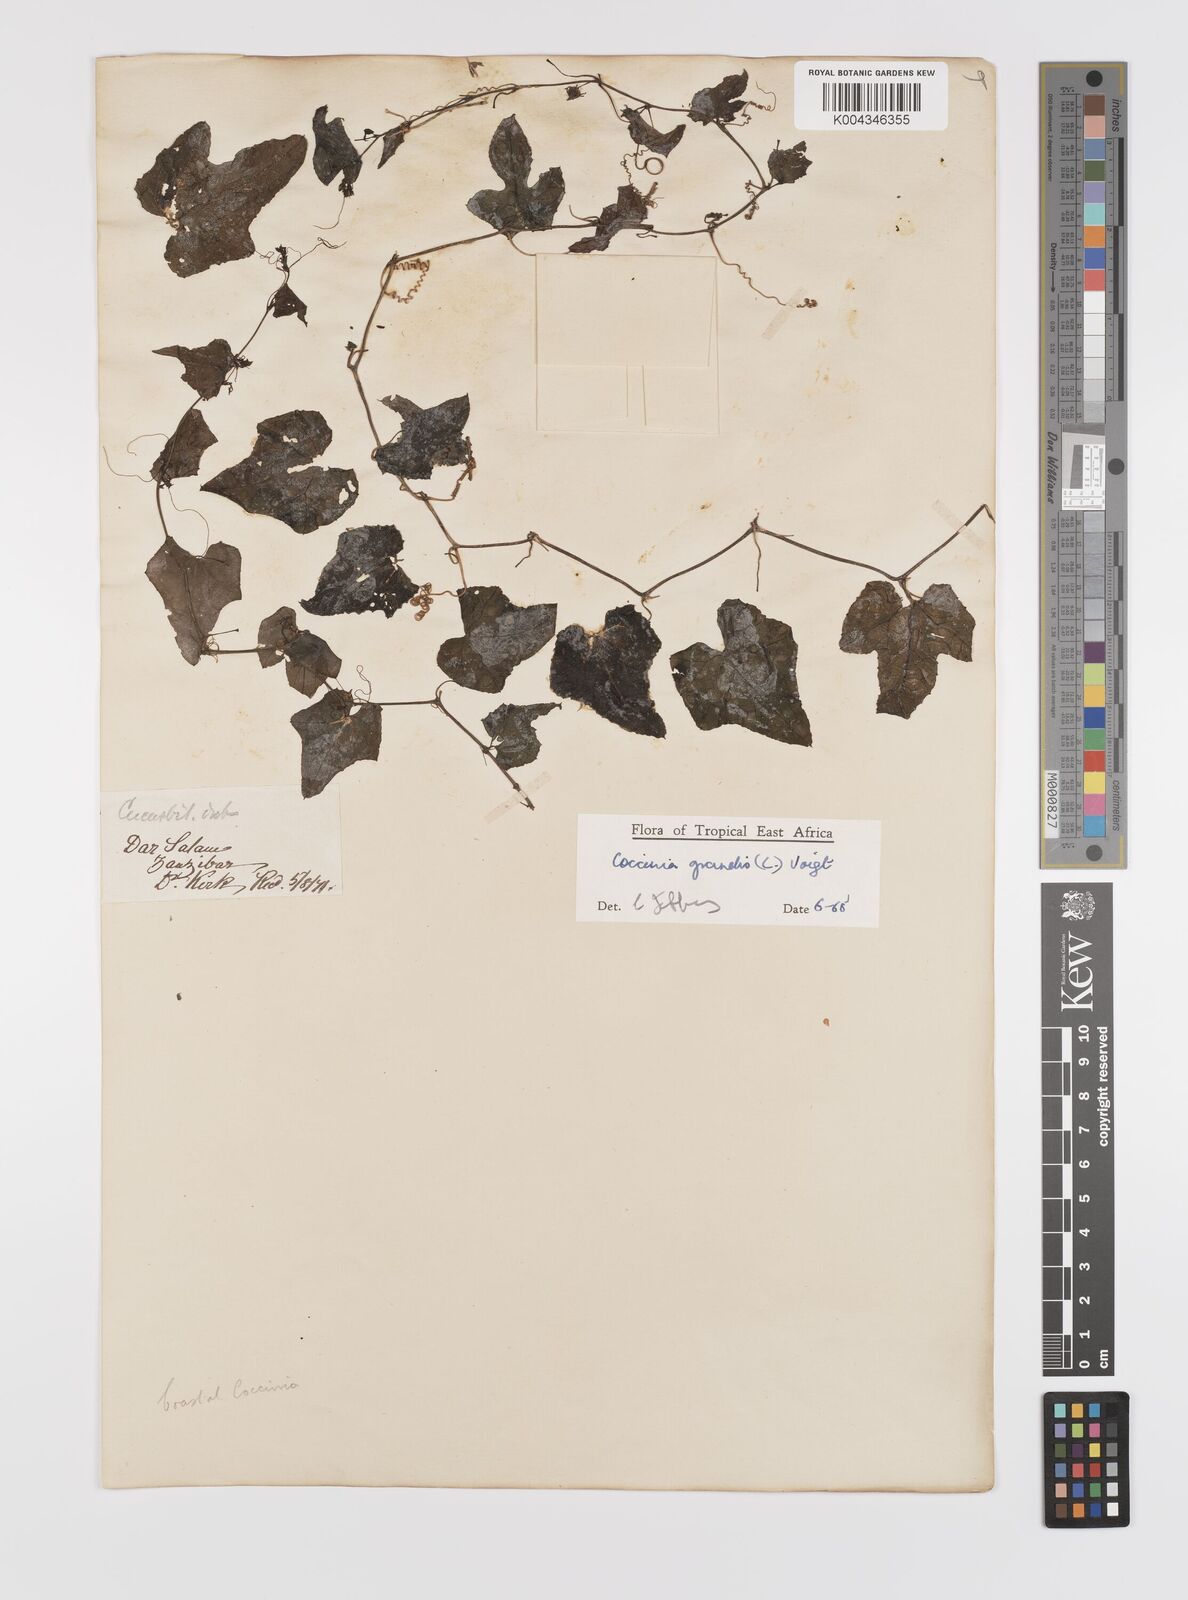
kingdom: Plantae
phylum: Tracheophyta
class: Magnoliopsida
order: Cucurbitales
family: Cucurbitaceae
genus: Coccinia
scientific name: Coccinia grandis
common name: Ivy gourd
